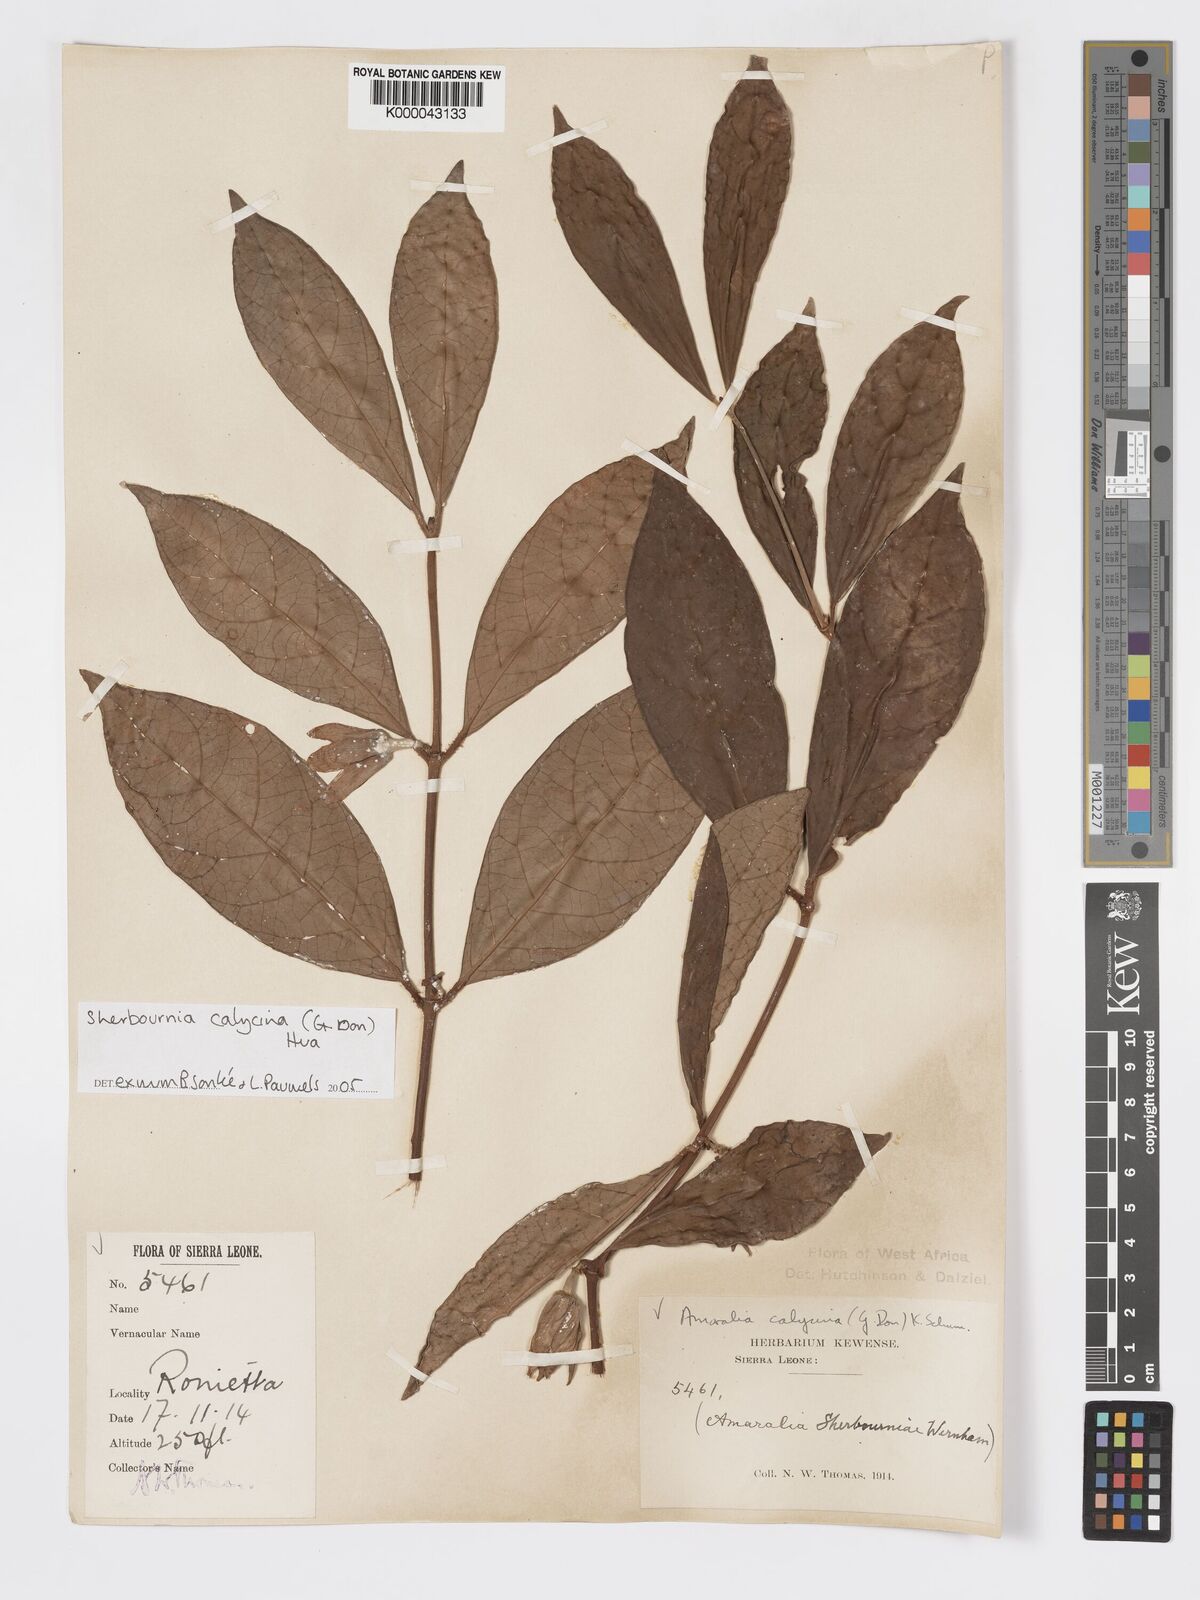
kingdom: Plantae
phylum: Tracheophyta
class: Magnoliopsida
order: Gentianales
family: Rubiaceae
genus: Sherbournia
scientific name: Sherbournia calycina
